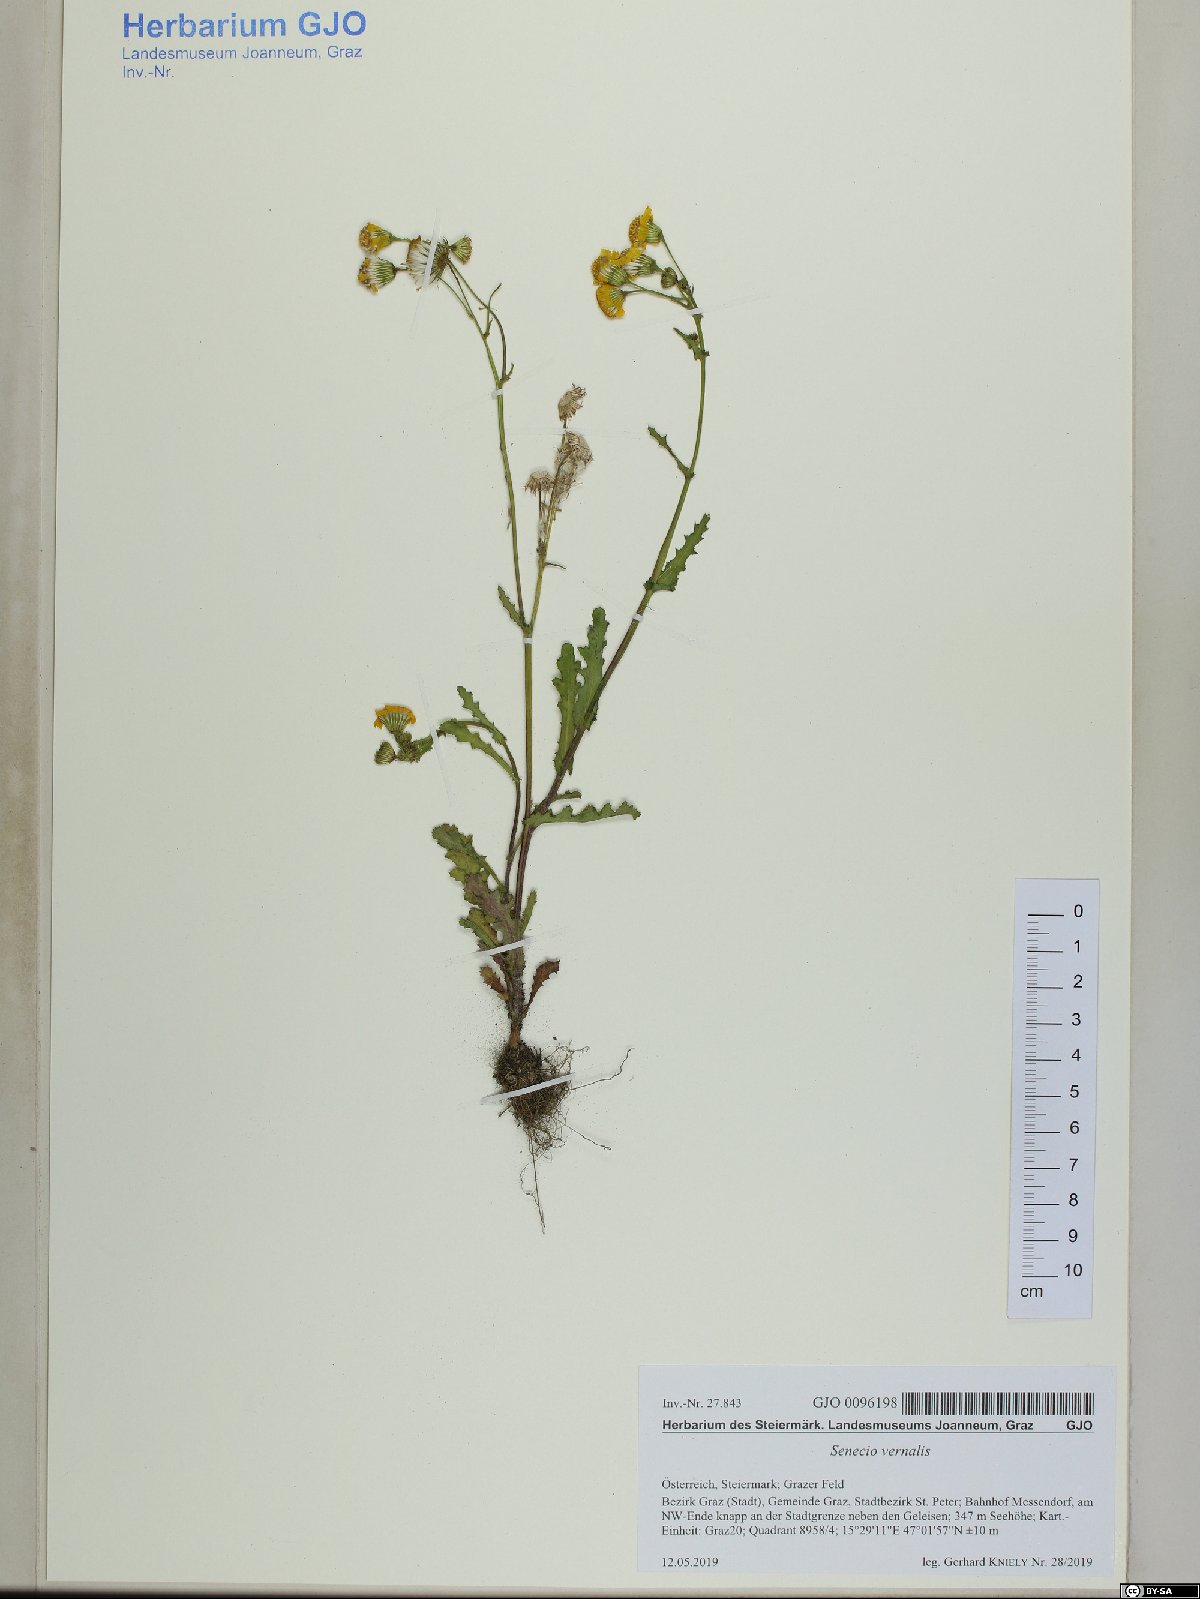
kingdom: Plantae
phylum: Tracheophyta
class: Magnoliopsida
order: Asterales
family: Asteraceae
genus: Senecio
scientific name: Senecio vernalis
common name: Eastern groundsel
